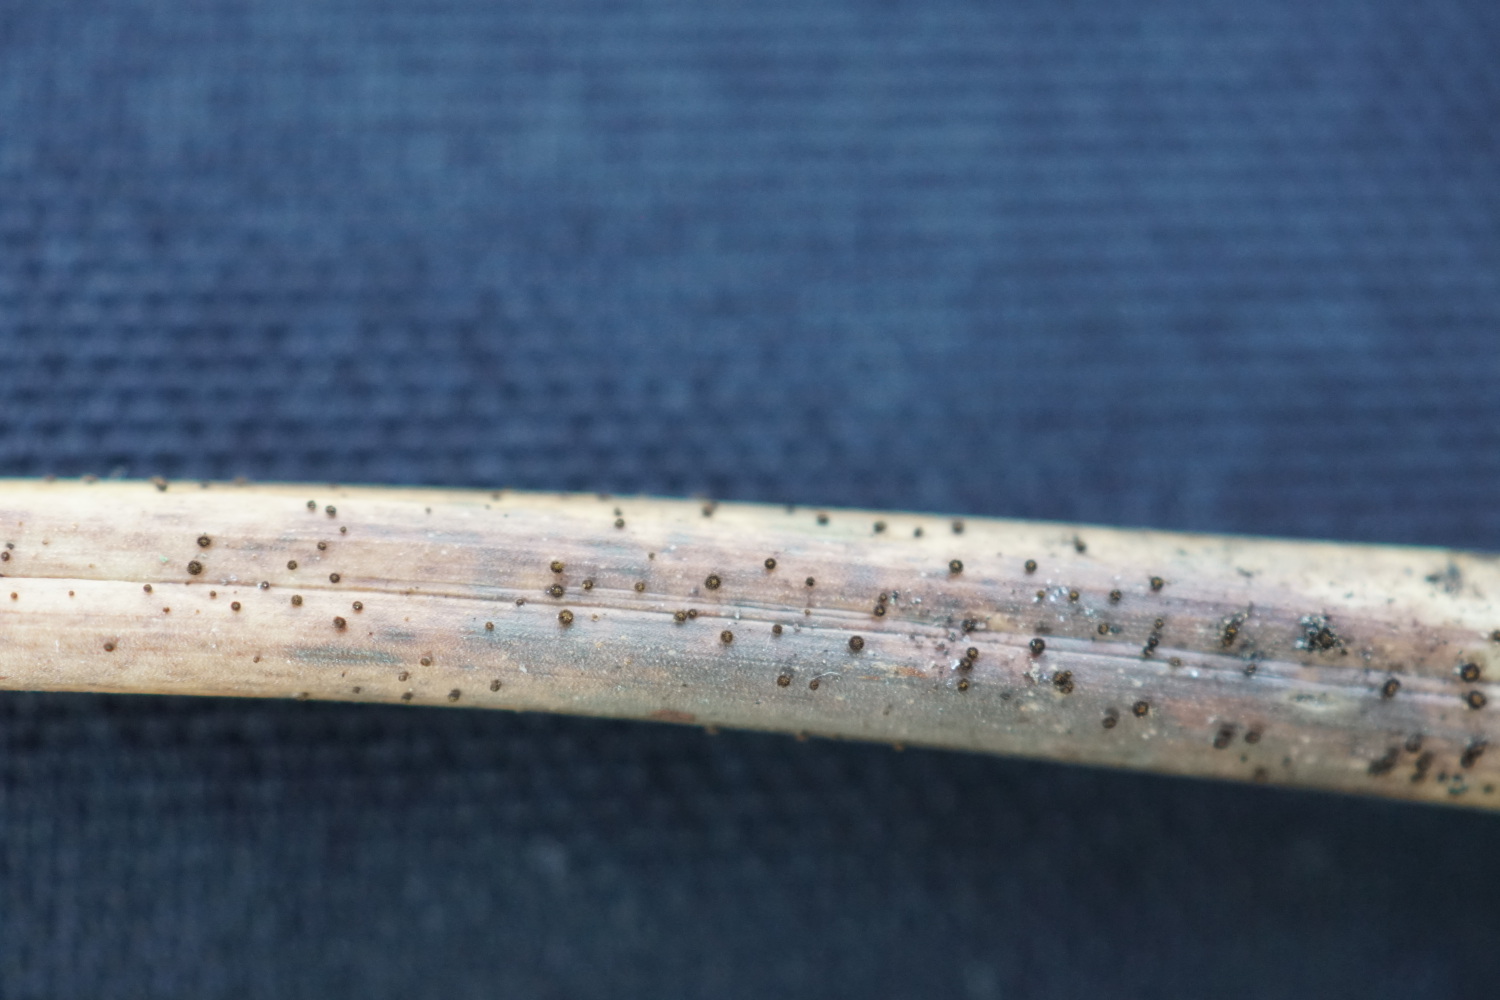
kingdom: Fungi
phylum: Ascomycota
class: Leotiomycetes
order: Helotiales
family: Solenopeziaceae
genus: Lasiobelonium
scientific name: Lasiobelonium nidulus
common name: rede-frynseskive
